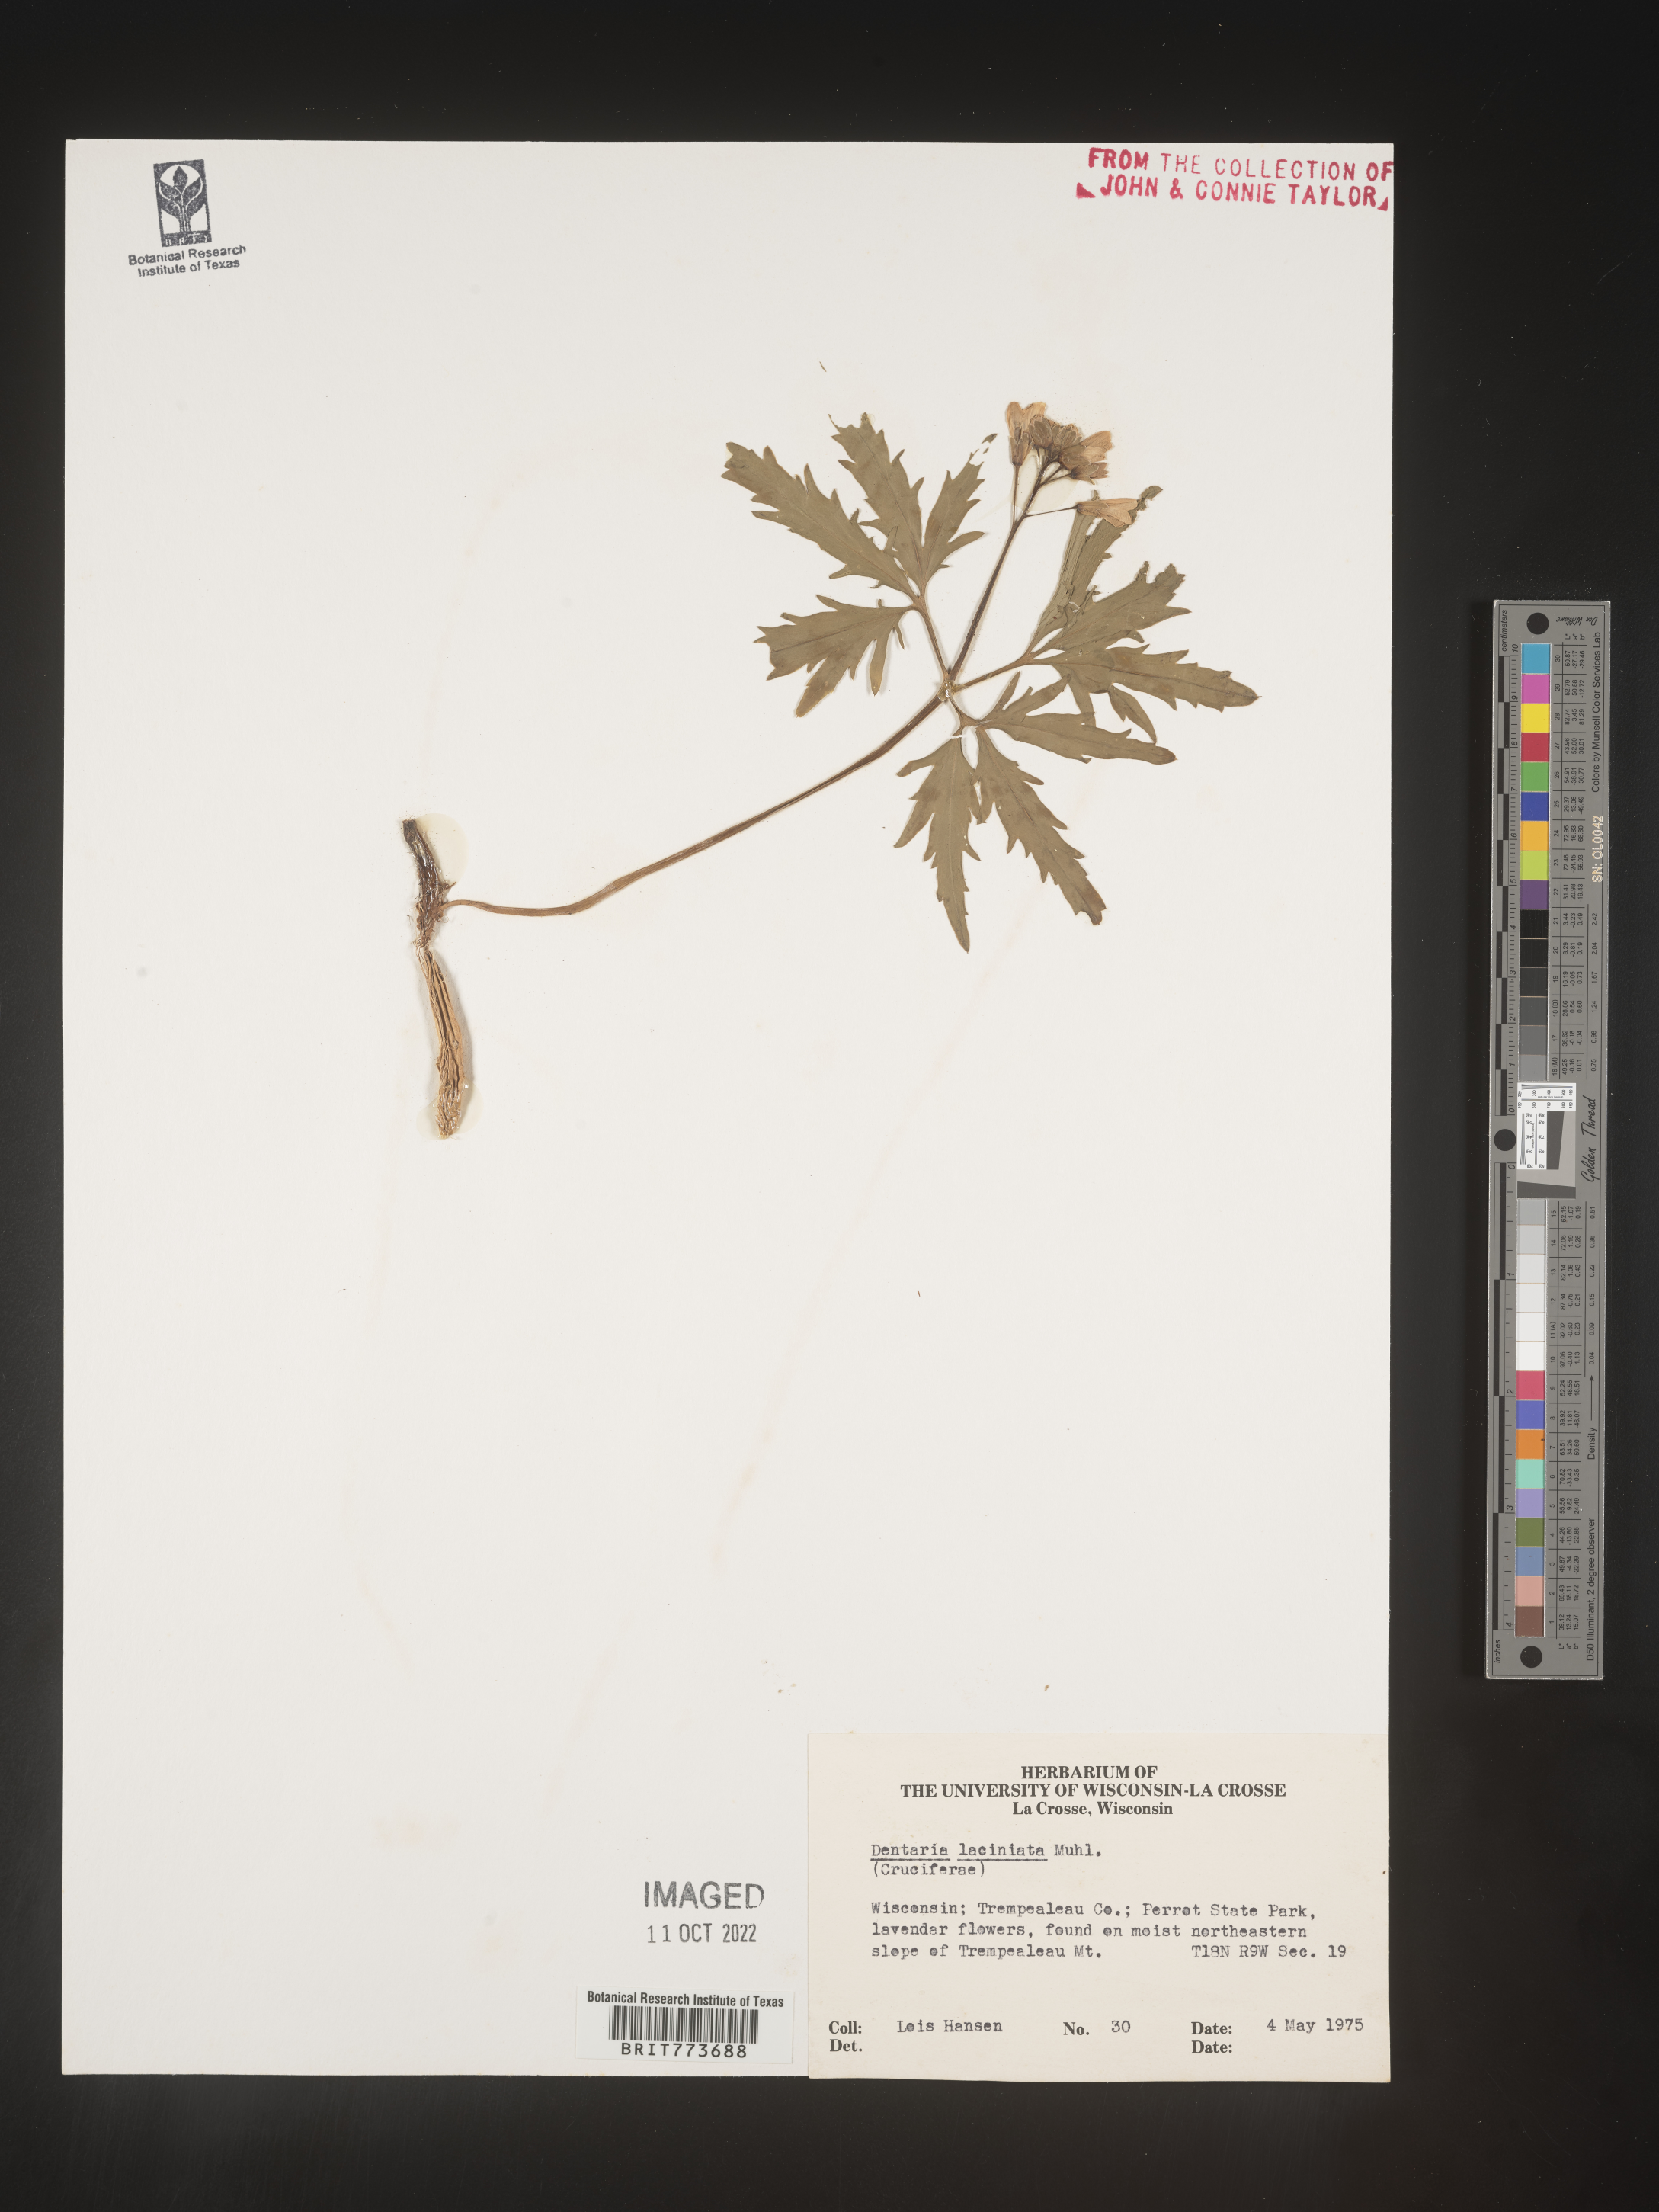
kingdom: Plantae
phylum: Tracheophyta
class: Magnoliopsida
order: Brassicales
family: Brassicaceae
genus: Rorippa
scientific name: Rorippa laciniata
